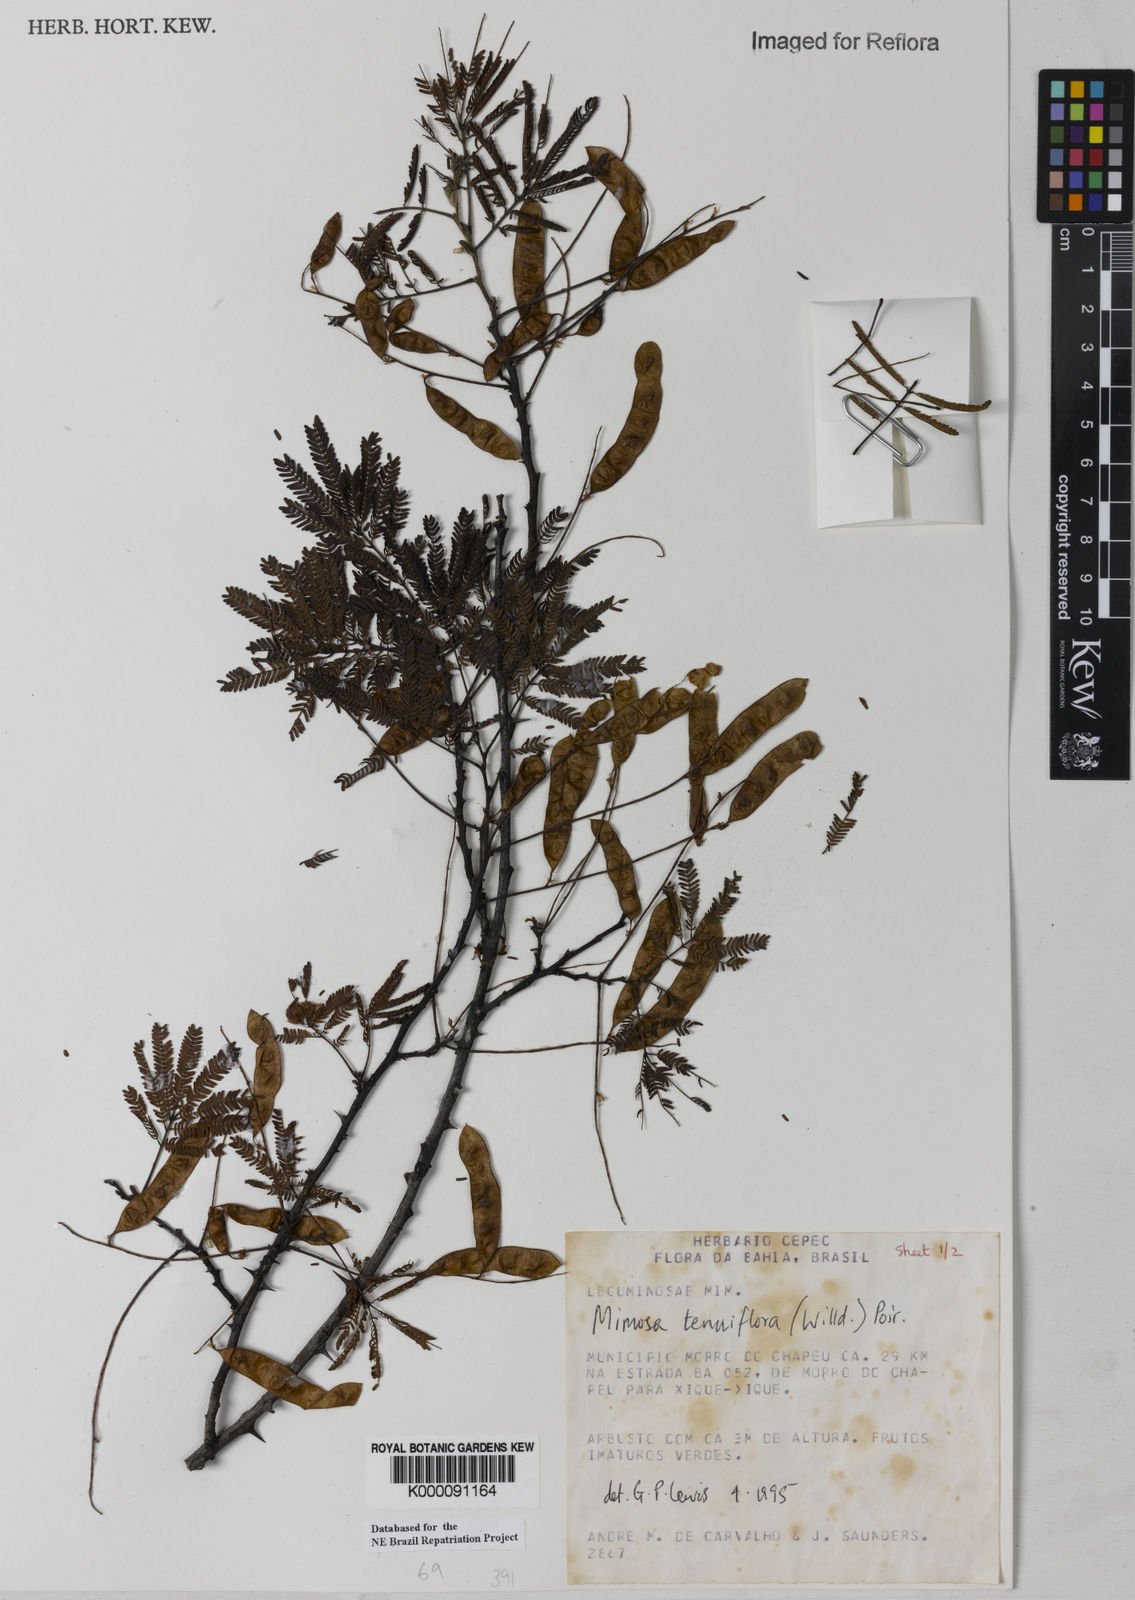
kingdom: Plantae
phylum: Tracheophyta
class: Magnoliopsida
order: Fabales
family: Fabaceae
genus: Mimosa
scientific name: Mimosa tenuiflora
